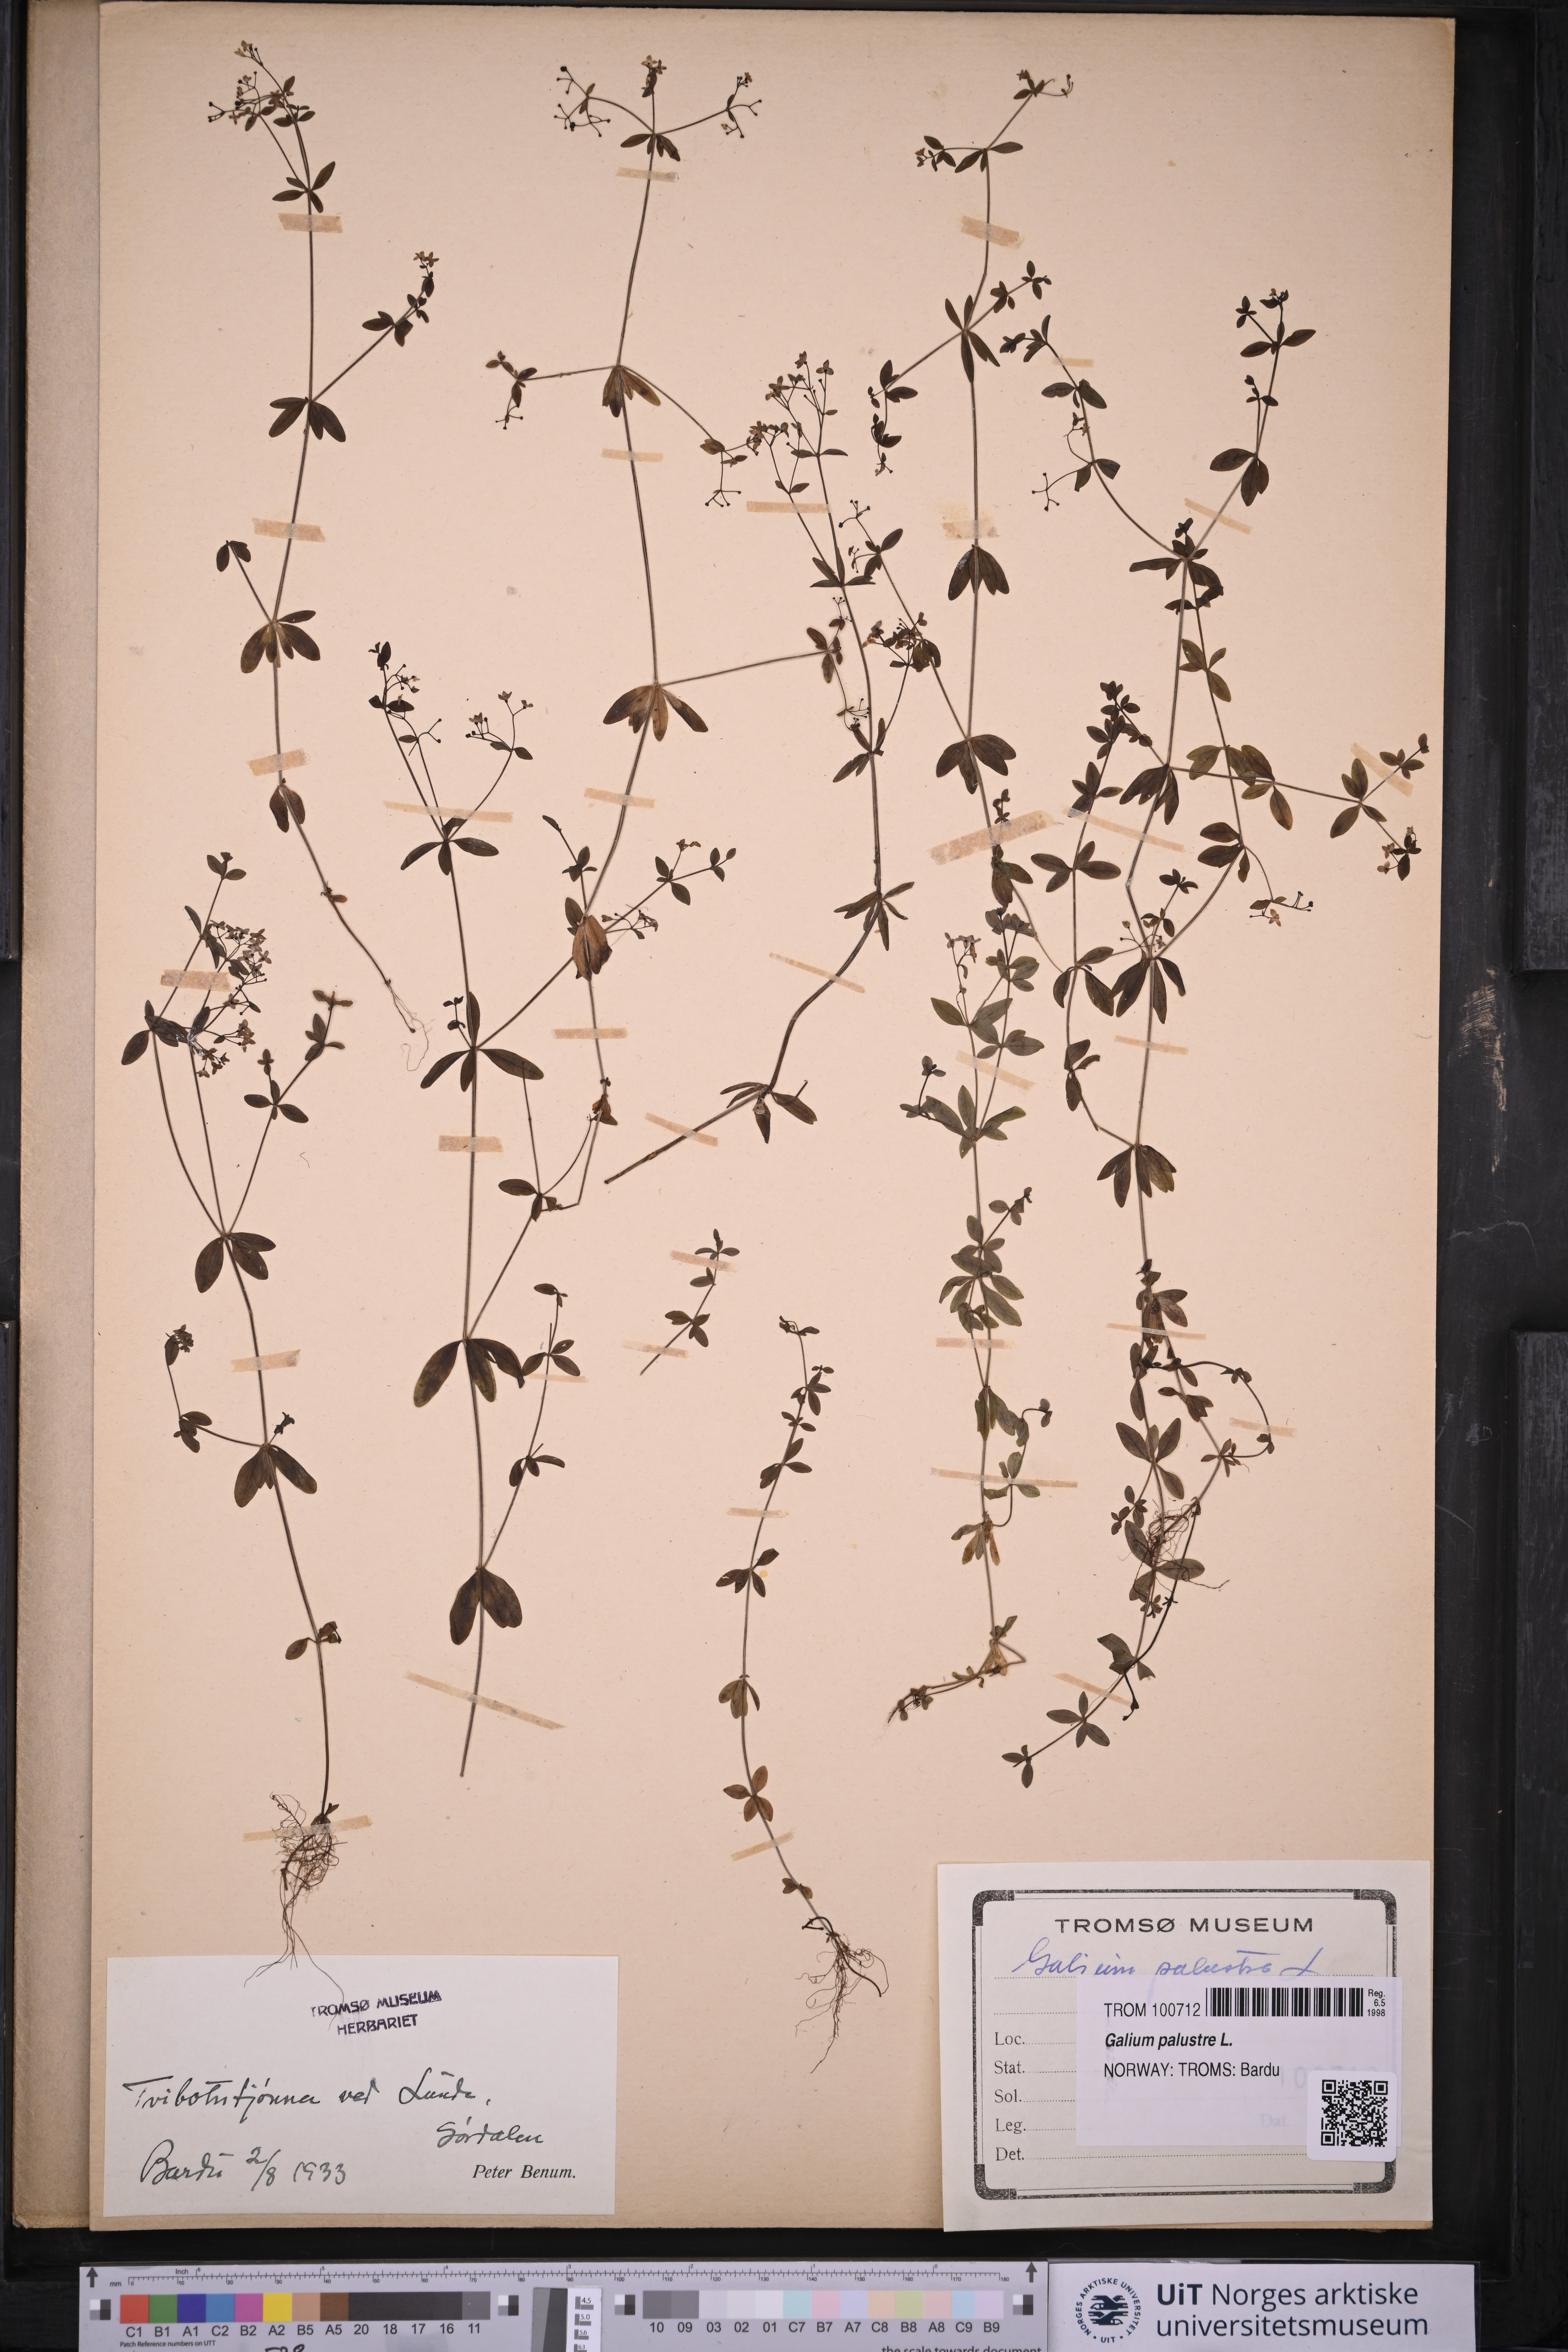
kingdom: Plantae
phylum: Tracheophyta
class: Magnoliopsida
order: Gentianales
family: Rubiaceae
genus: Galium
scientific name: Galium palustre
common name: Common marsh-bedstraw
